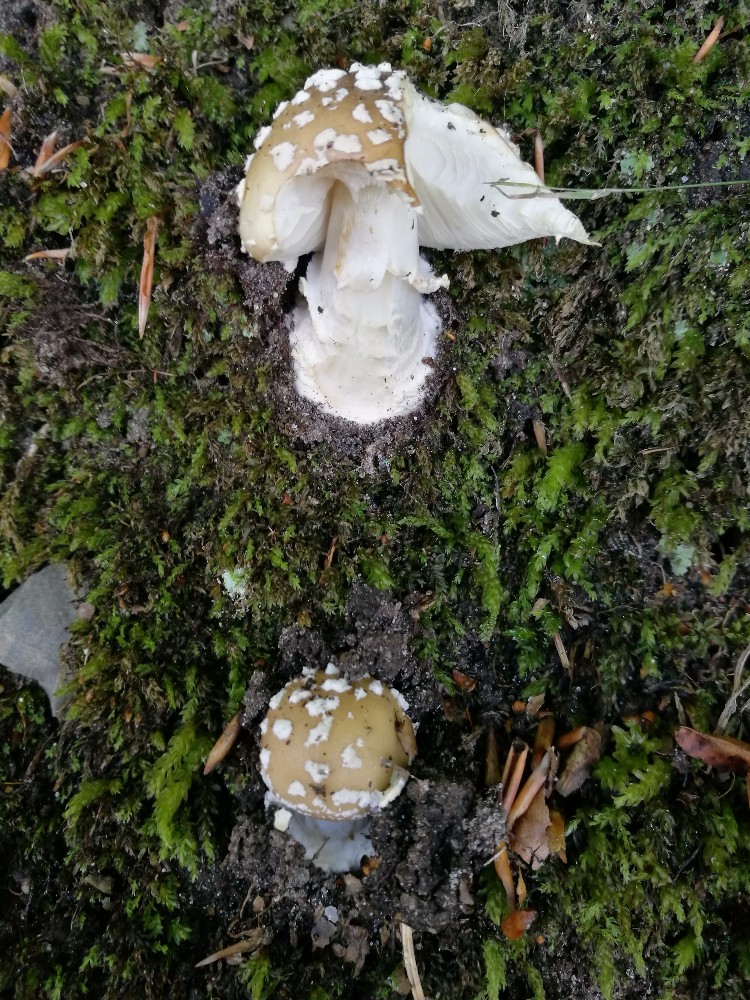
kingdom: Fungi
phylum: Basidiomycota
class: Agaricomycetes
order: Agaricales
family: Amanitaceae
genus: Amanita
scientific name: Amanita pantherina
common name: panter-fluesvamp
